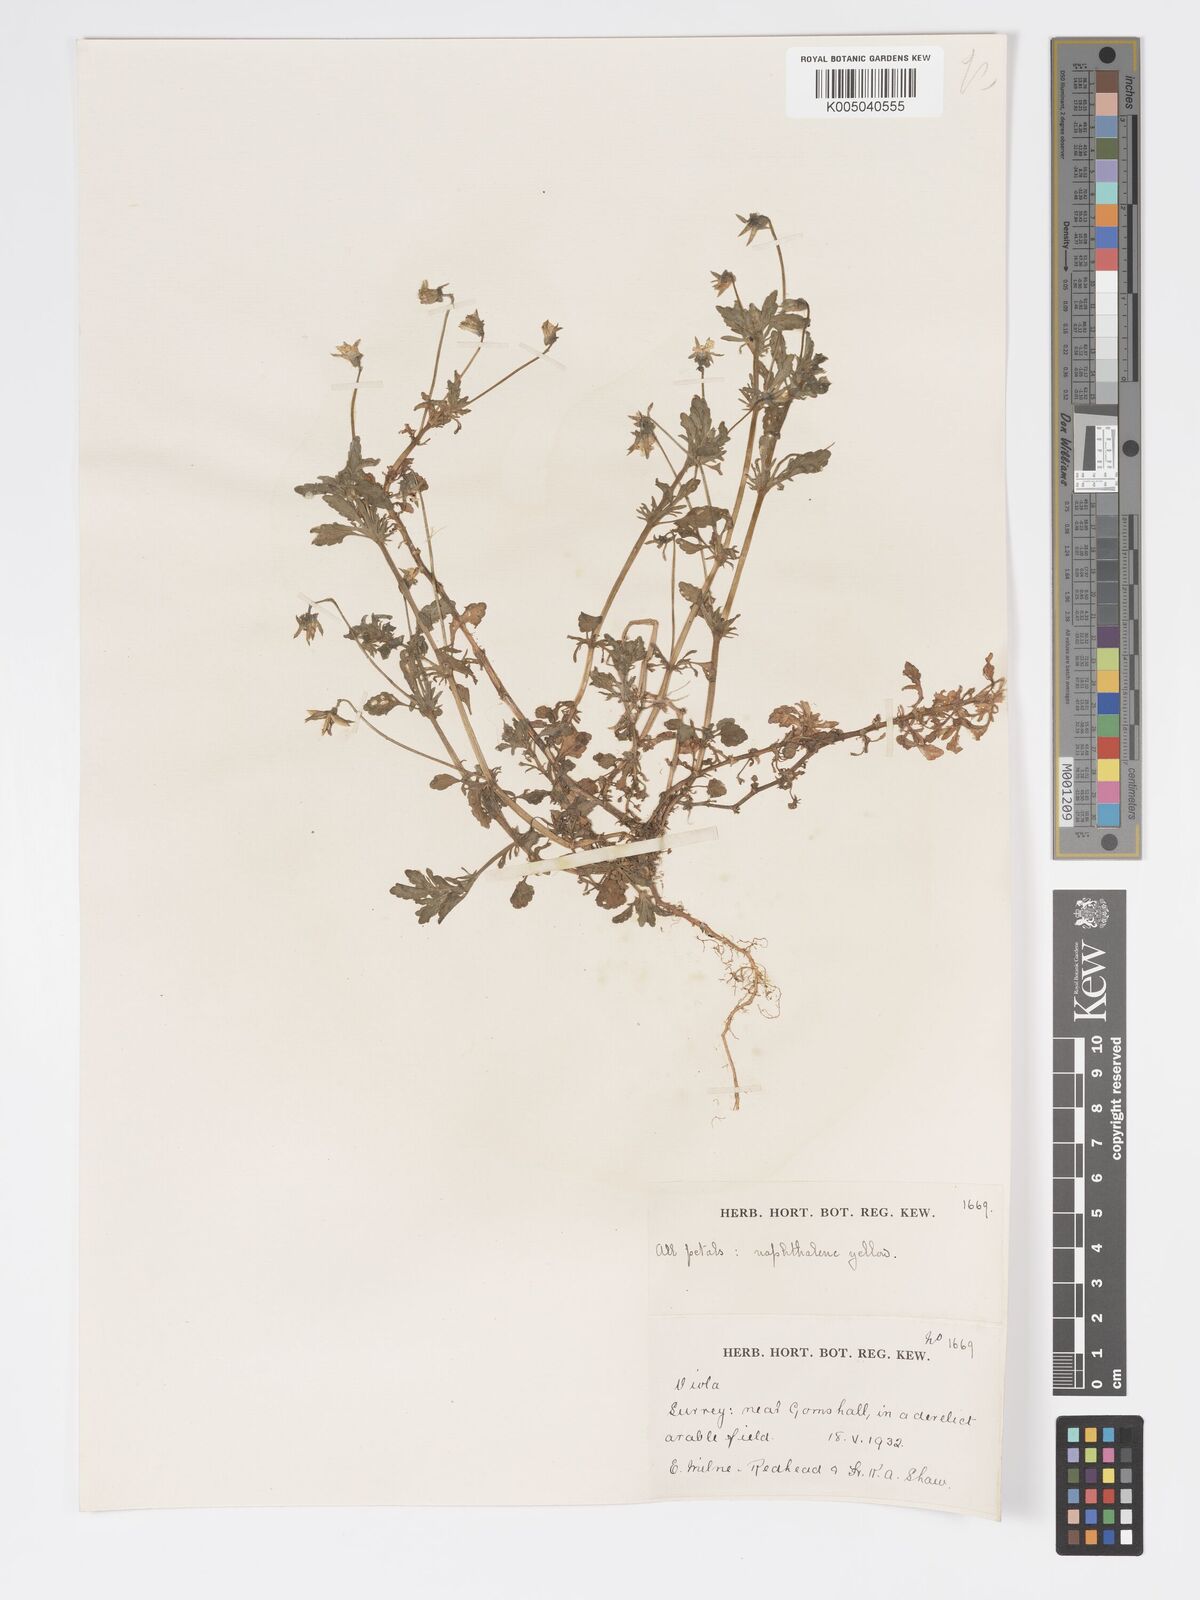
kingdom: Plantae
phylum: Tracheophyta
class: Magnoliopsida
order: Malpighiales
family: Violaceae
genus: Viola
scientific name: Viola
